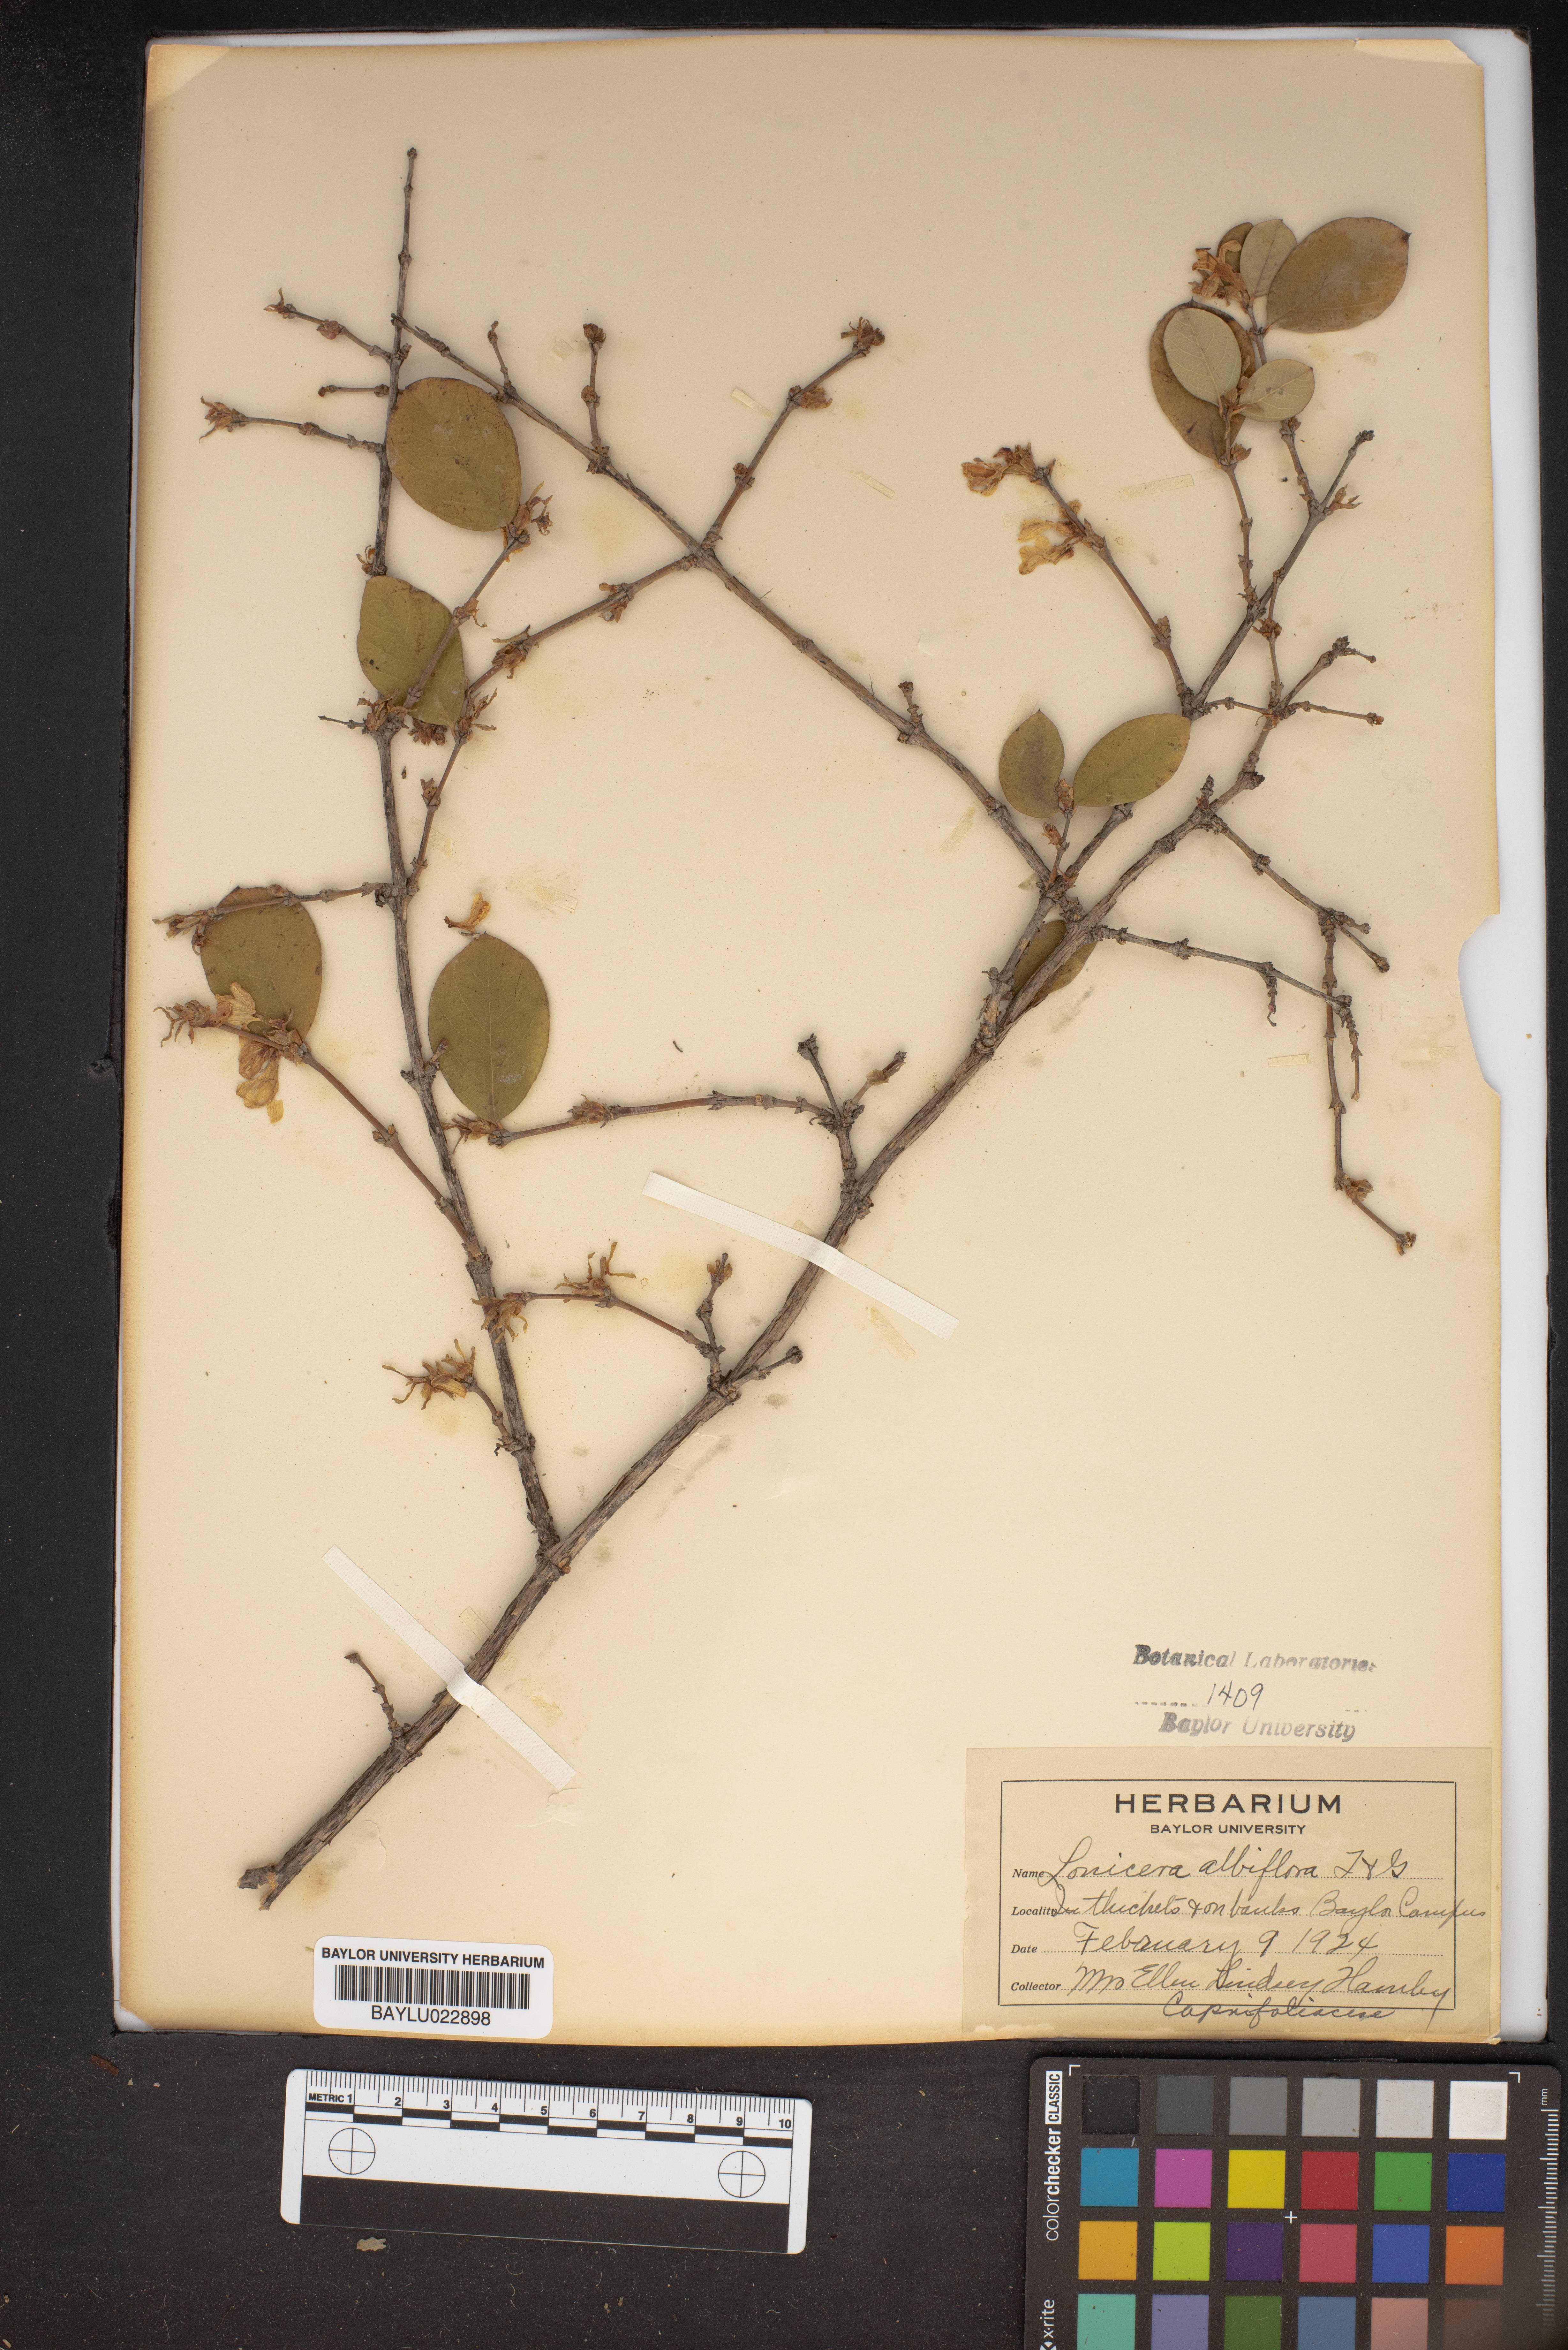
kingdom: Plantae
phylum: Tracheophyta
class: Magnoliopsida
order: Dipsacales
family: Caprifoliaceae
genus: Lonicera
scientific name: Lonicera albiflora
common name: White honeysuckle
